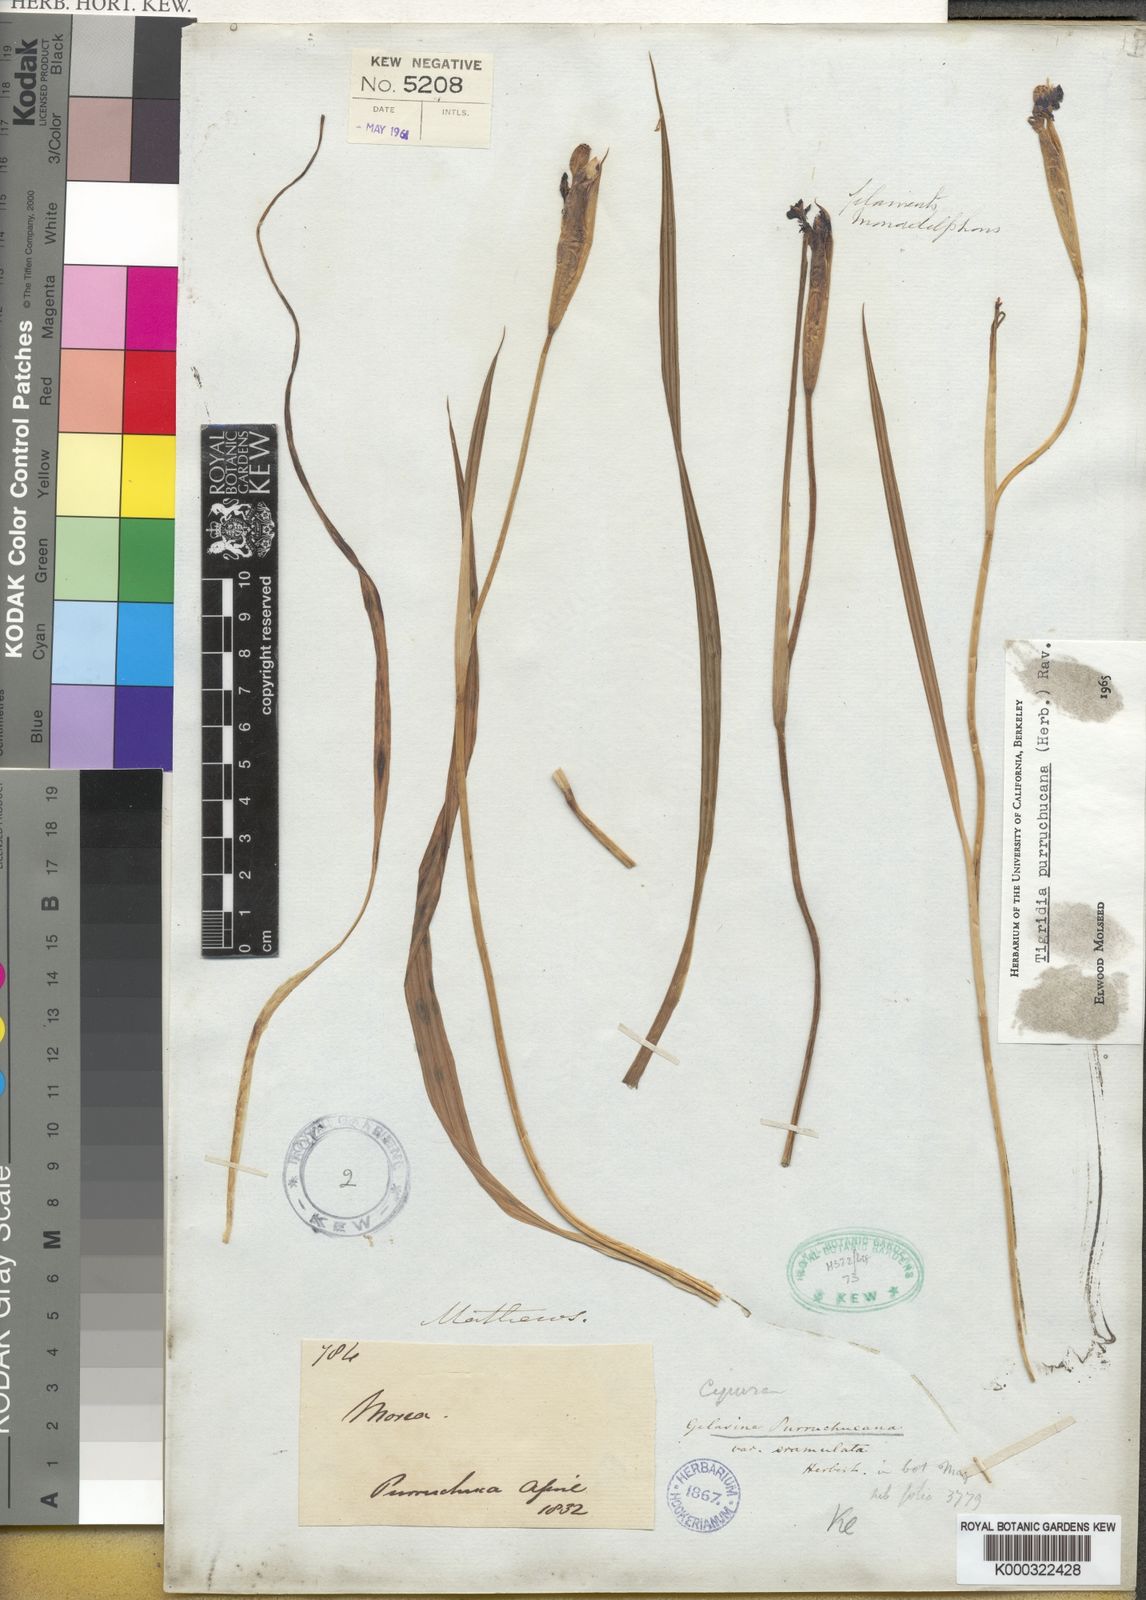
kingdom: Plantae
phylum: Tracheophyta
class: Liliopsida
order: Asparagales
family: Iridaceae
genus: Tigridia
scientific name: Tigridia purruchucana
